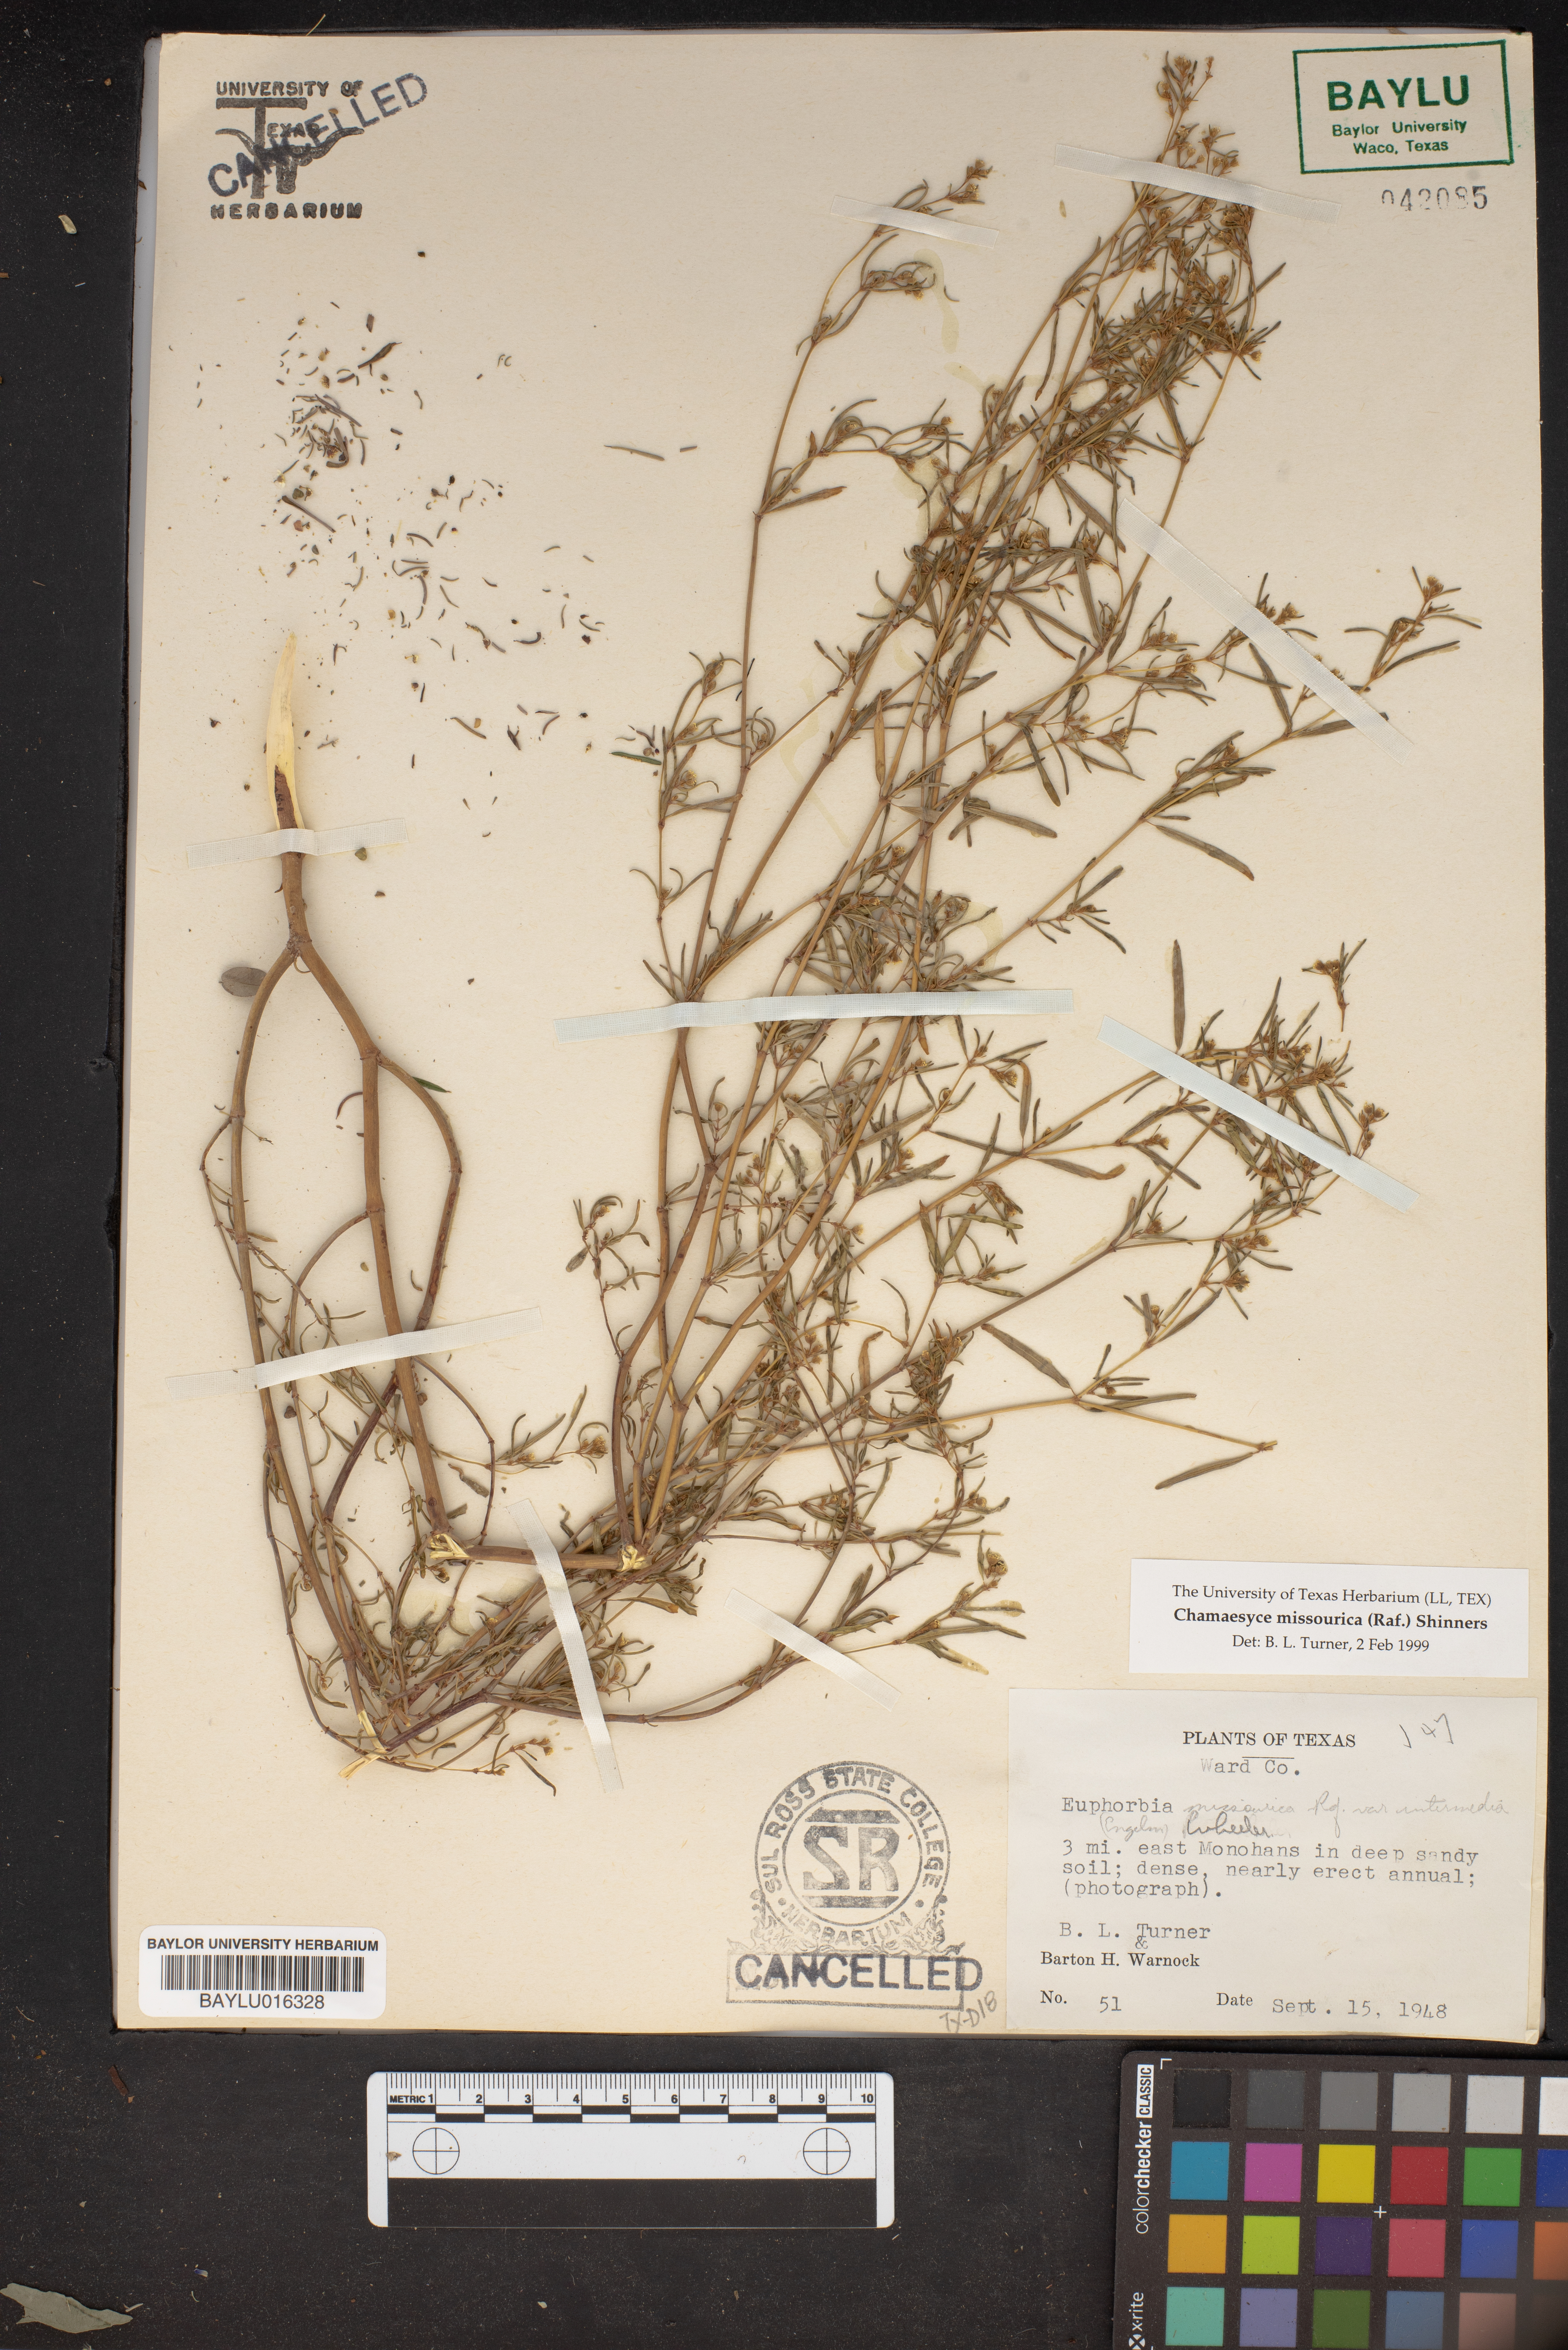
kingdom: Plantae
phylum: Tracheophyta
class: Magnoliopsida
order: Malpighiales
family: Euphorbiaceae
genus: Euphorbia
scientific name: Euphorbia missurica
